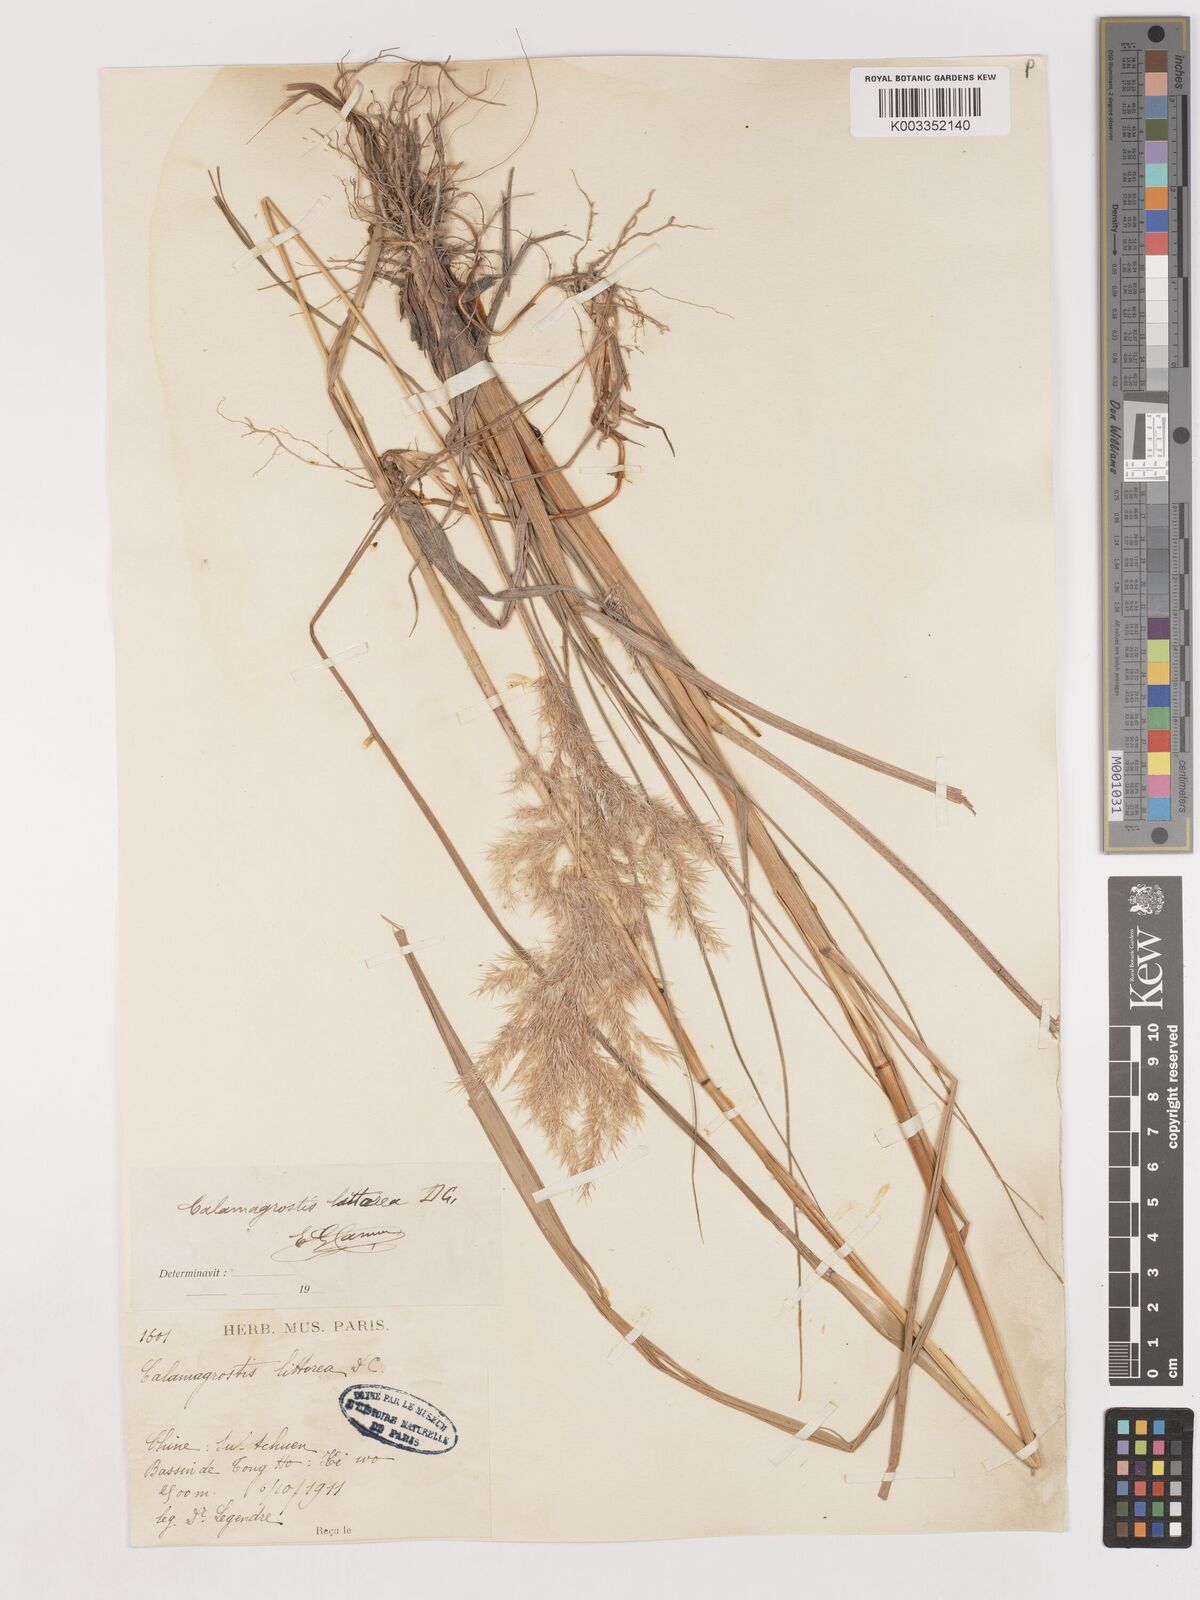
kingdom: Plantae
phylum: Tracheophyta
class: Liliopsida
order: Poales
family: Poaceae
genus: Calamagrostis
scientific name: Calamagrostis pseudophragmites
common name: Coastal small-reed
